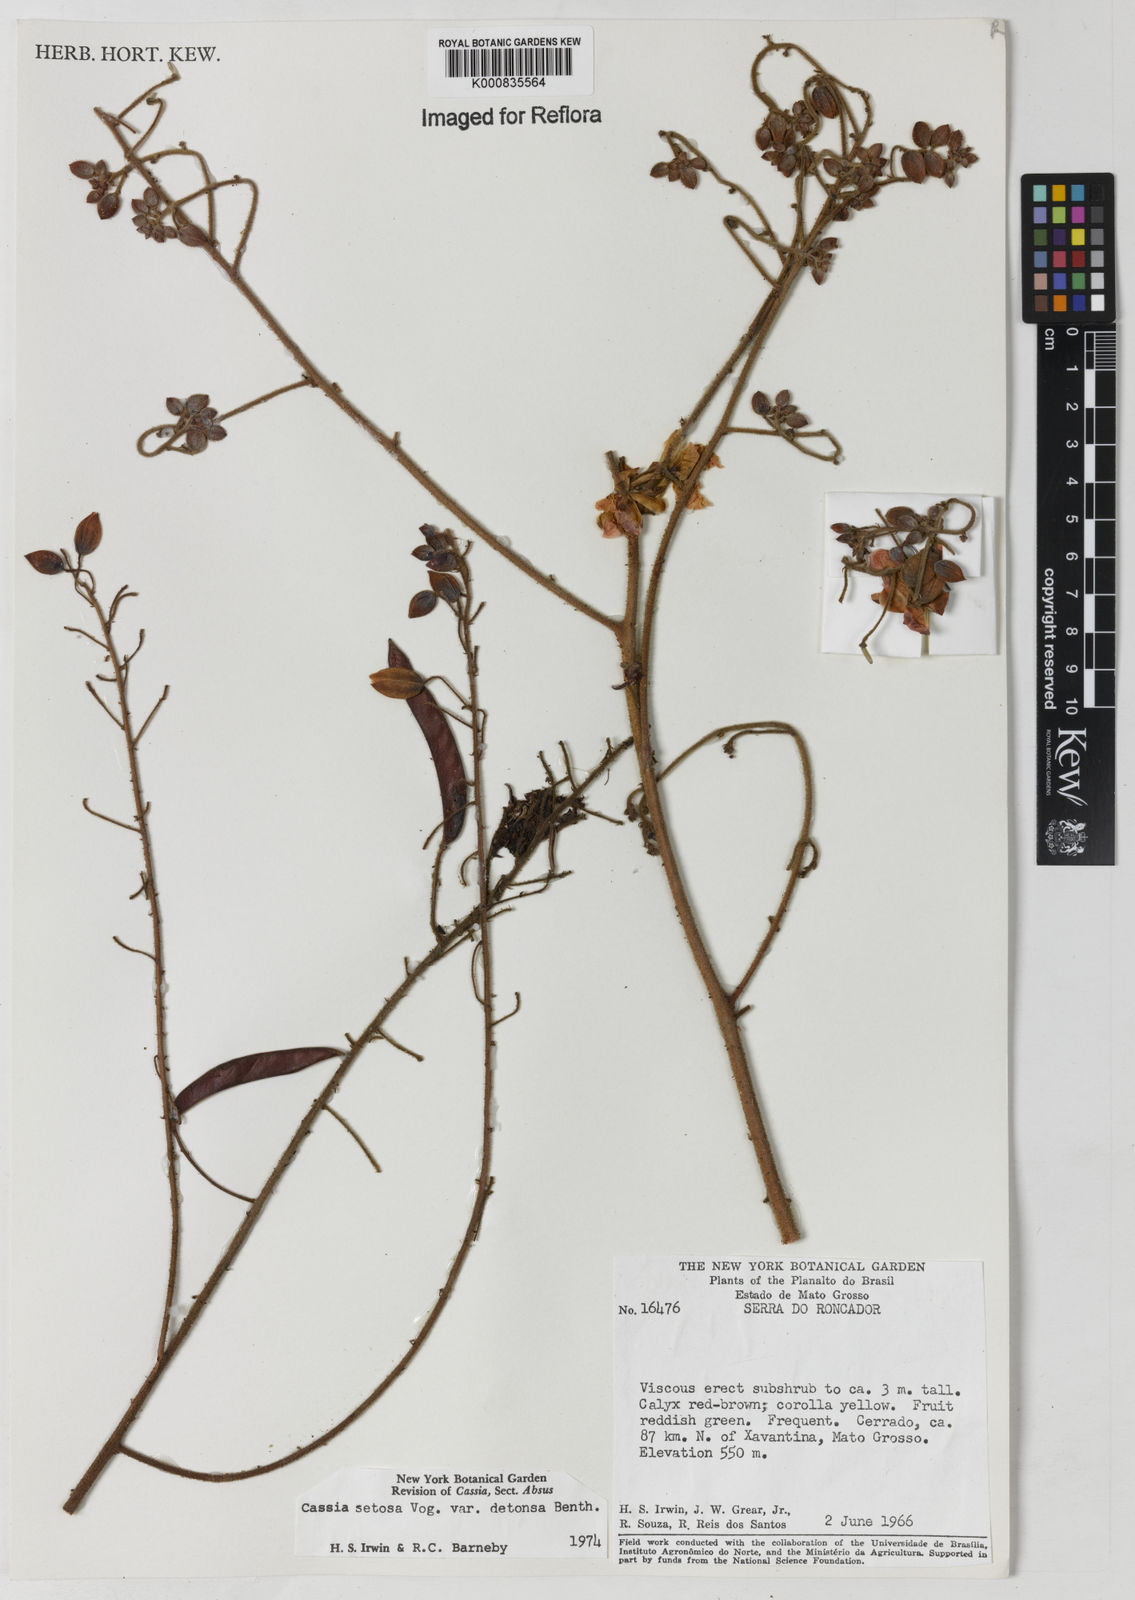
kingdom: Plantae
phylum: Tracheophyta
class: Magnoliopsida
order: Fabales
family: Fabaceae
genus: Chamaecrista
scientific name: Chamaecrista setosa
